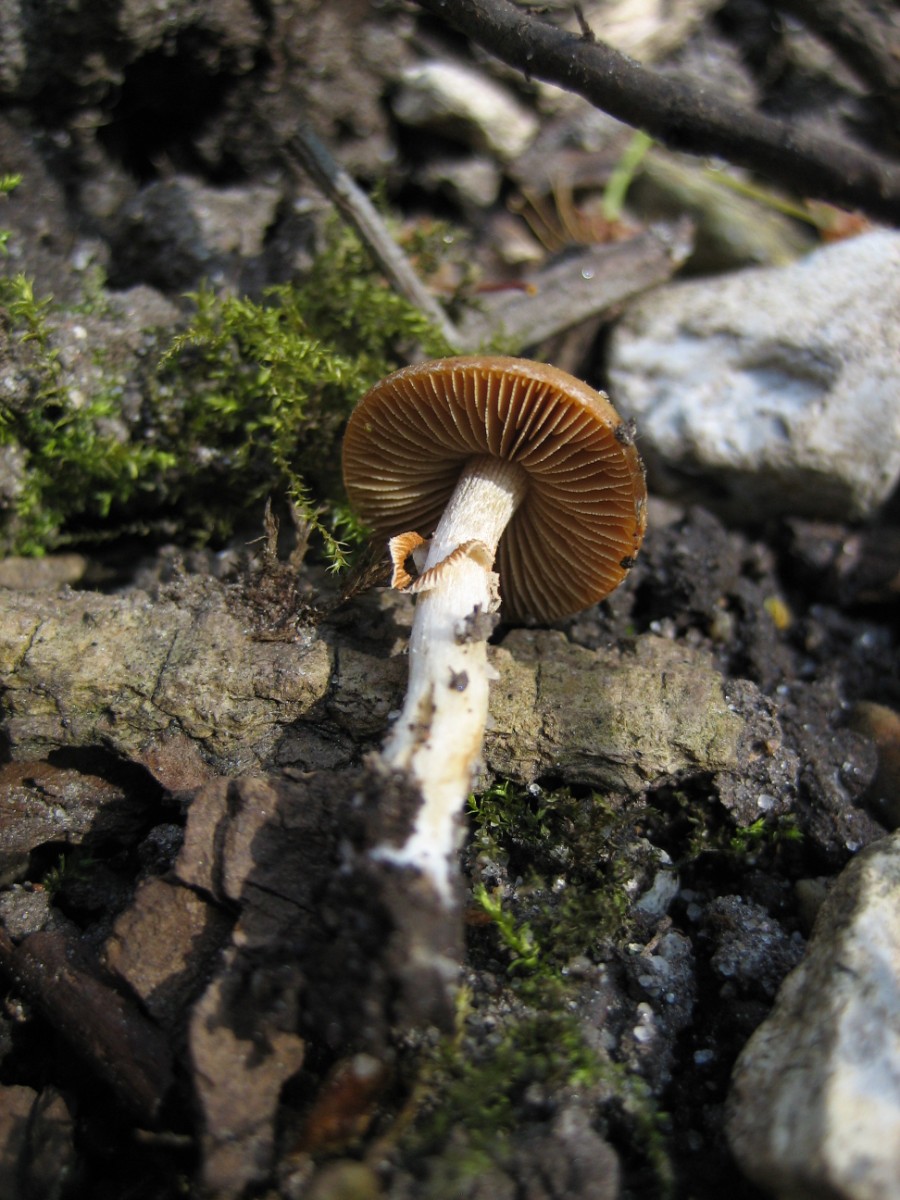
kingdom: Fungi
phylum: Basidiomycota
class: Agaricomycetes
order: Agaricales
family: Bolbitiaceae
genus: Conocybe
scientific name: Conocybe aporos
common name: tidlig dansehat
